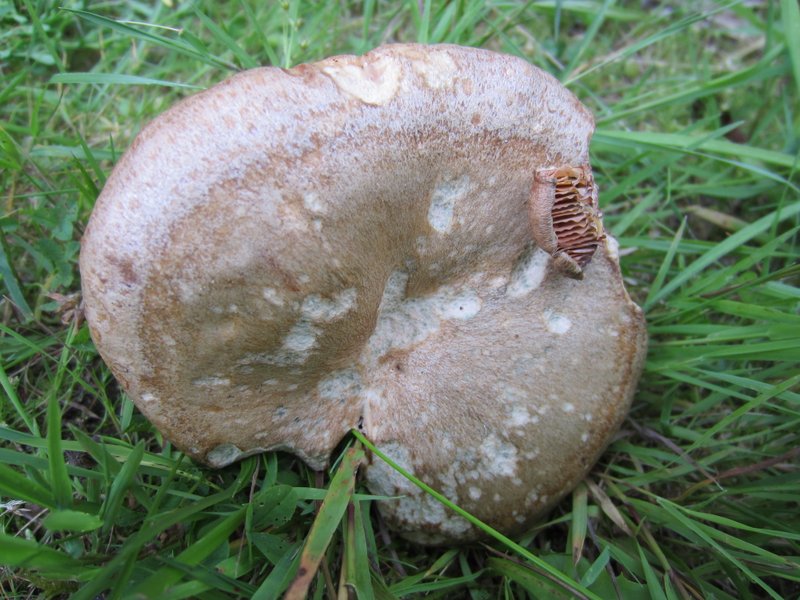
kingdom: Fungi
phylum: Basidiomycota
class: Agaricomycetes
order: Russulales
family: Russulaceae
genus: Lactarius
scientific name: Lactarius quieticolor
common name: tvefarvet mælkehat
